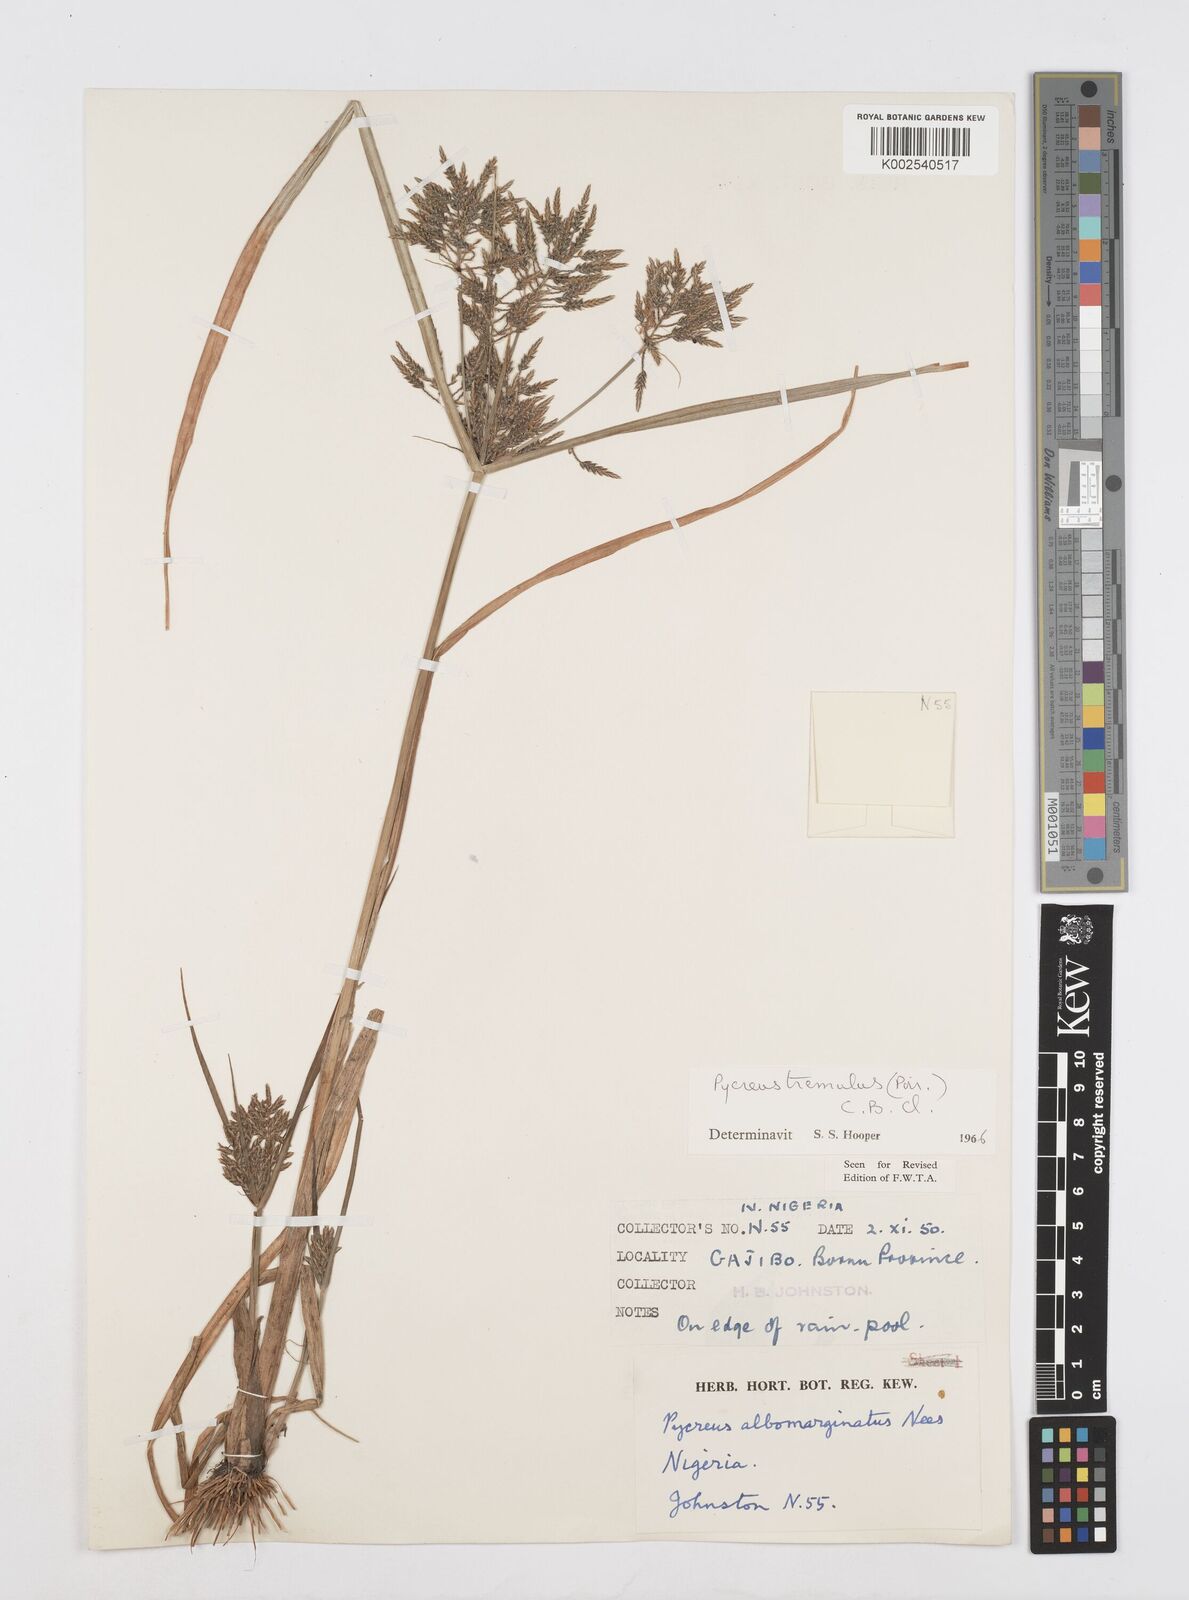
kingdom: Plantae
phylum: Tracheophyta
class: Liliopsida
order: Poales
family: Cyperaceae
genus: Cyperus
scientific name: Cyperus macrostachyos
